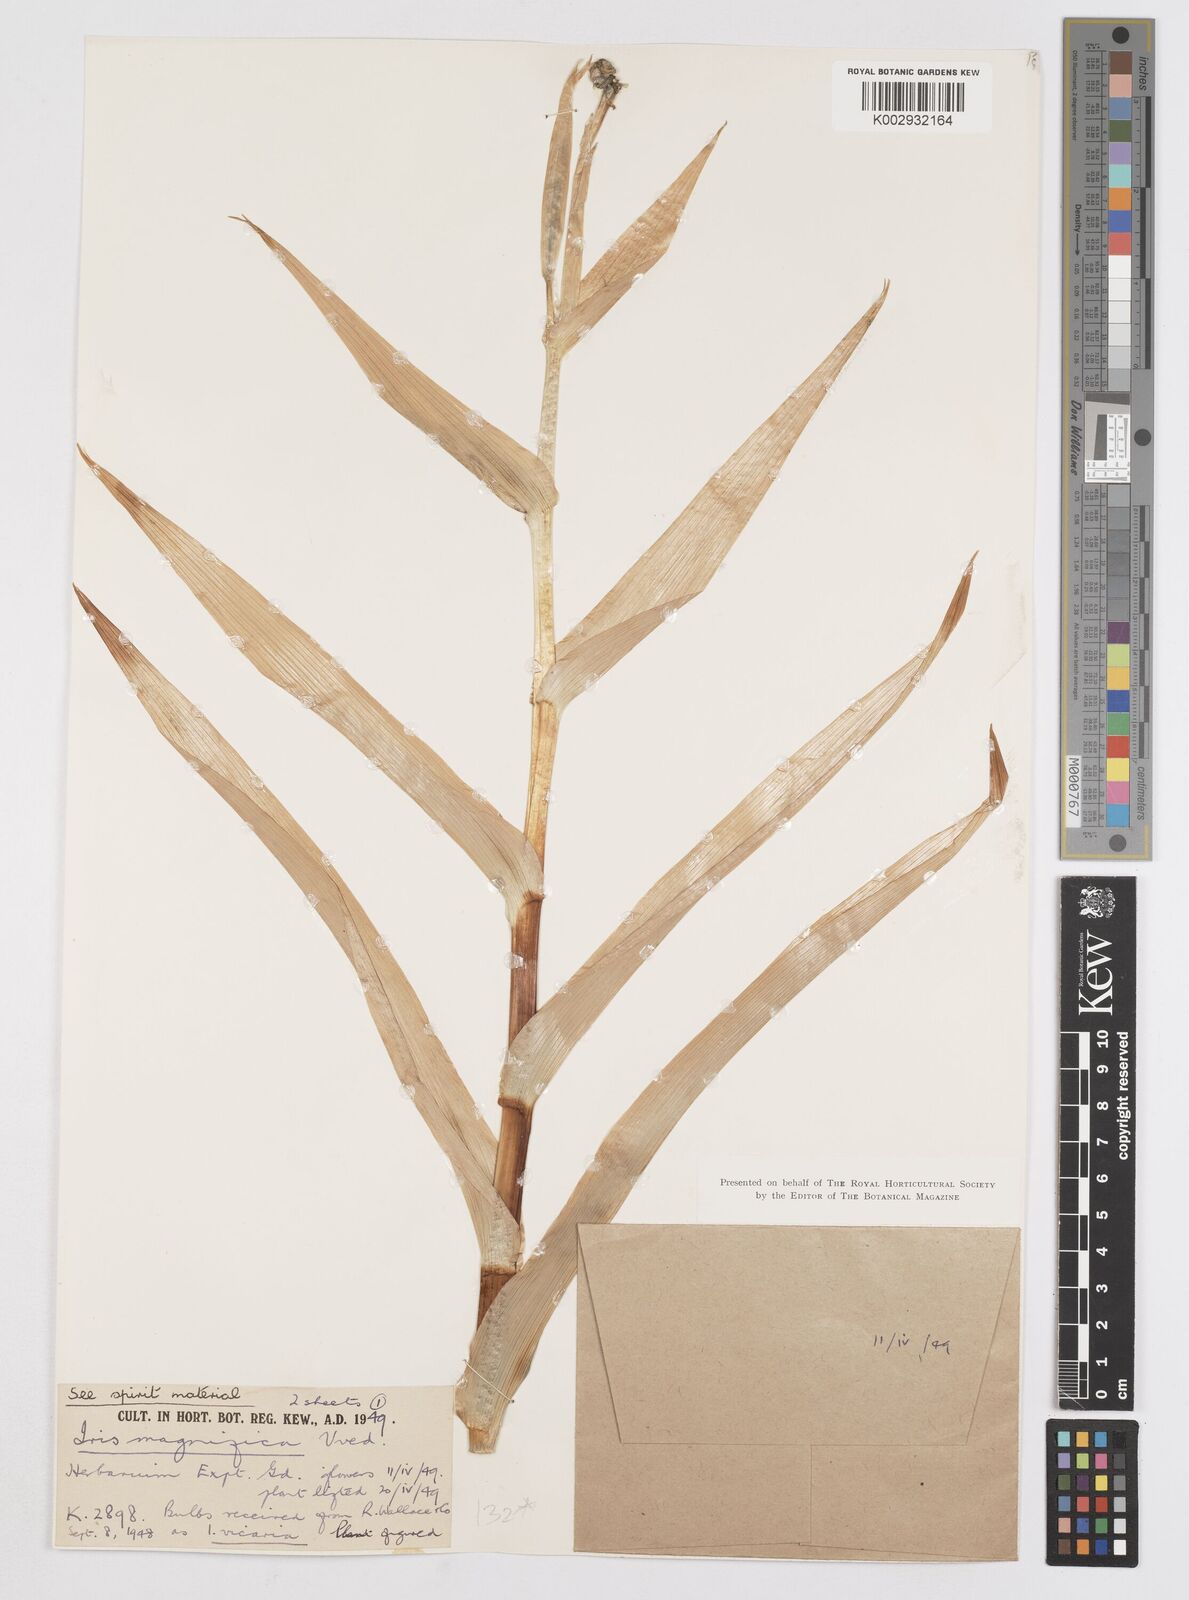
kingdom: Plantae
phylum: Tracheophyta
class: Liliopsida
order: Asparagales
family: Iridaceae
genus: Iris
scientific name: Iris magnifica
